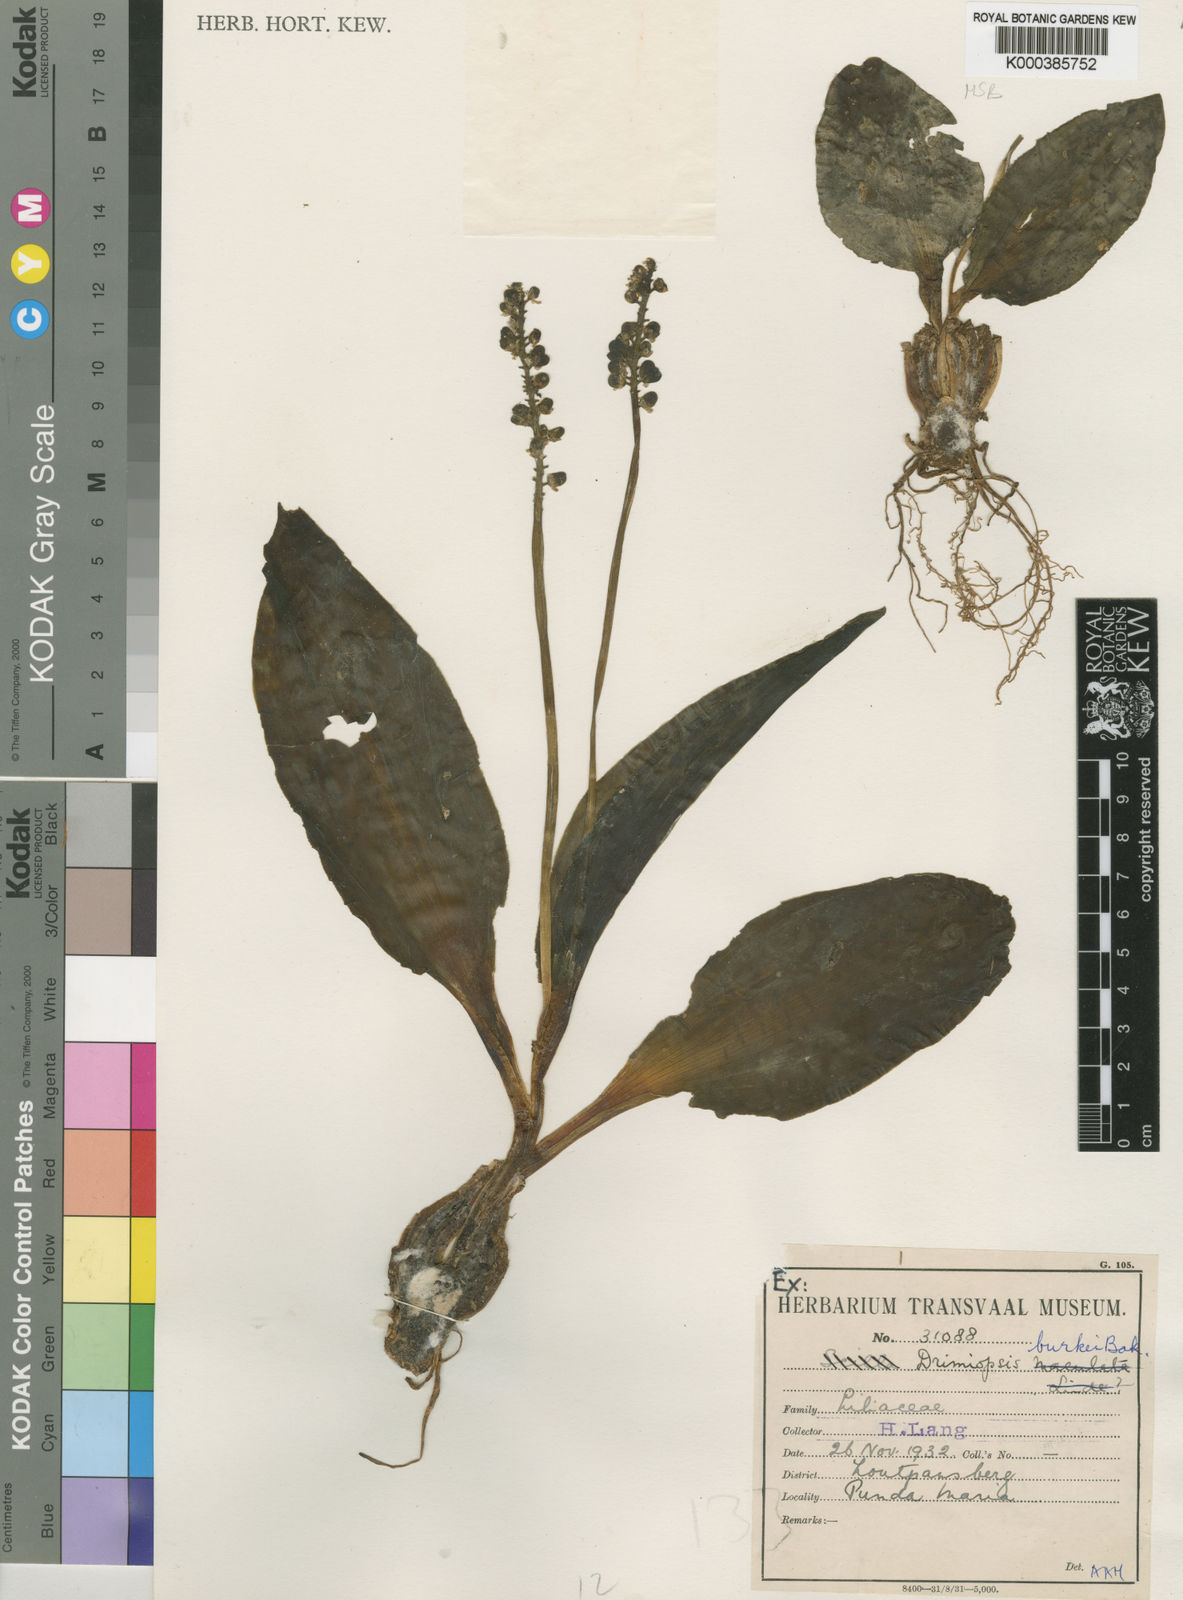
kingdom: Plantae
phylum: Tracheophyta
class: Liliopsida
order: Asparagales
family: Asparagaceae
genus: Drimiopsis
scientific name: Drimiopsis burkei
